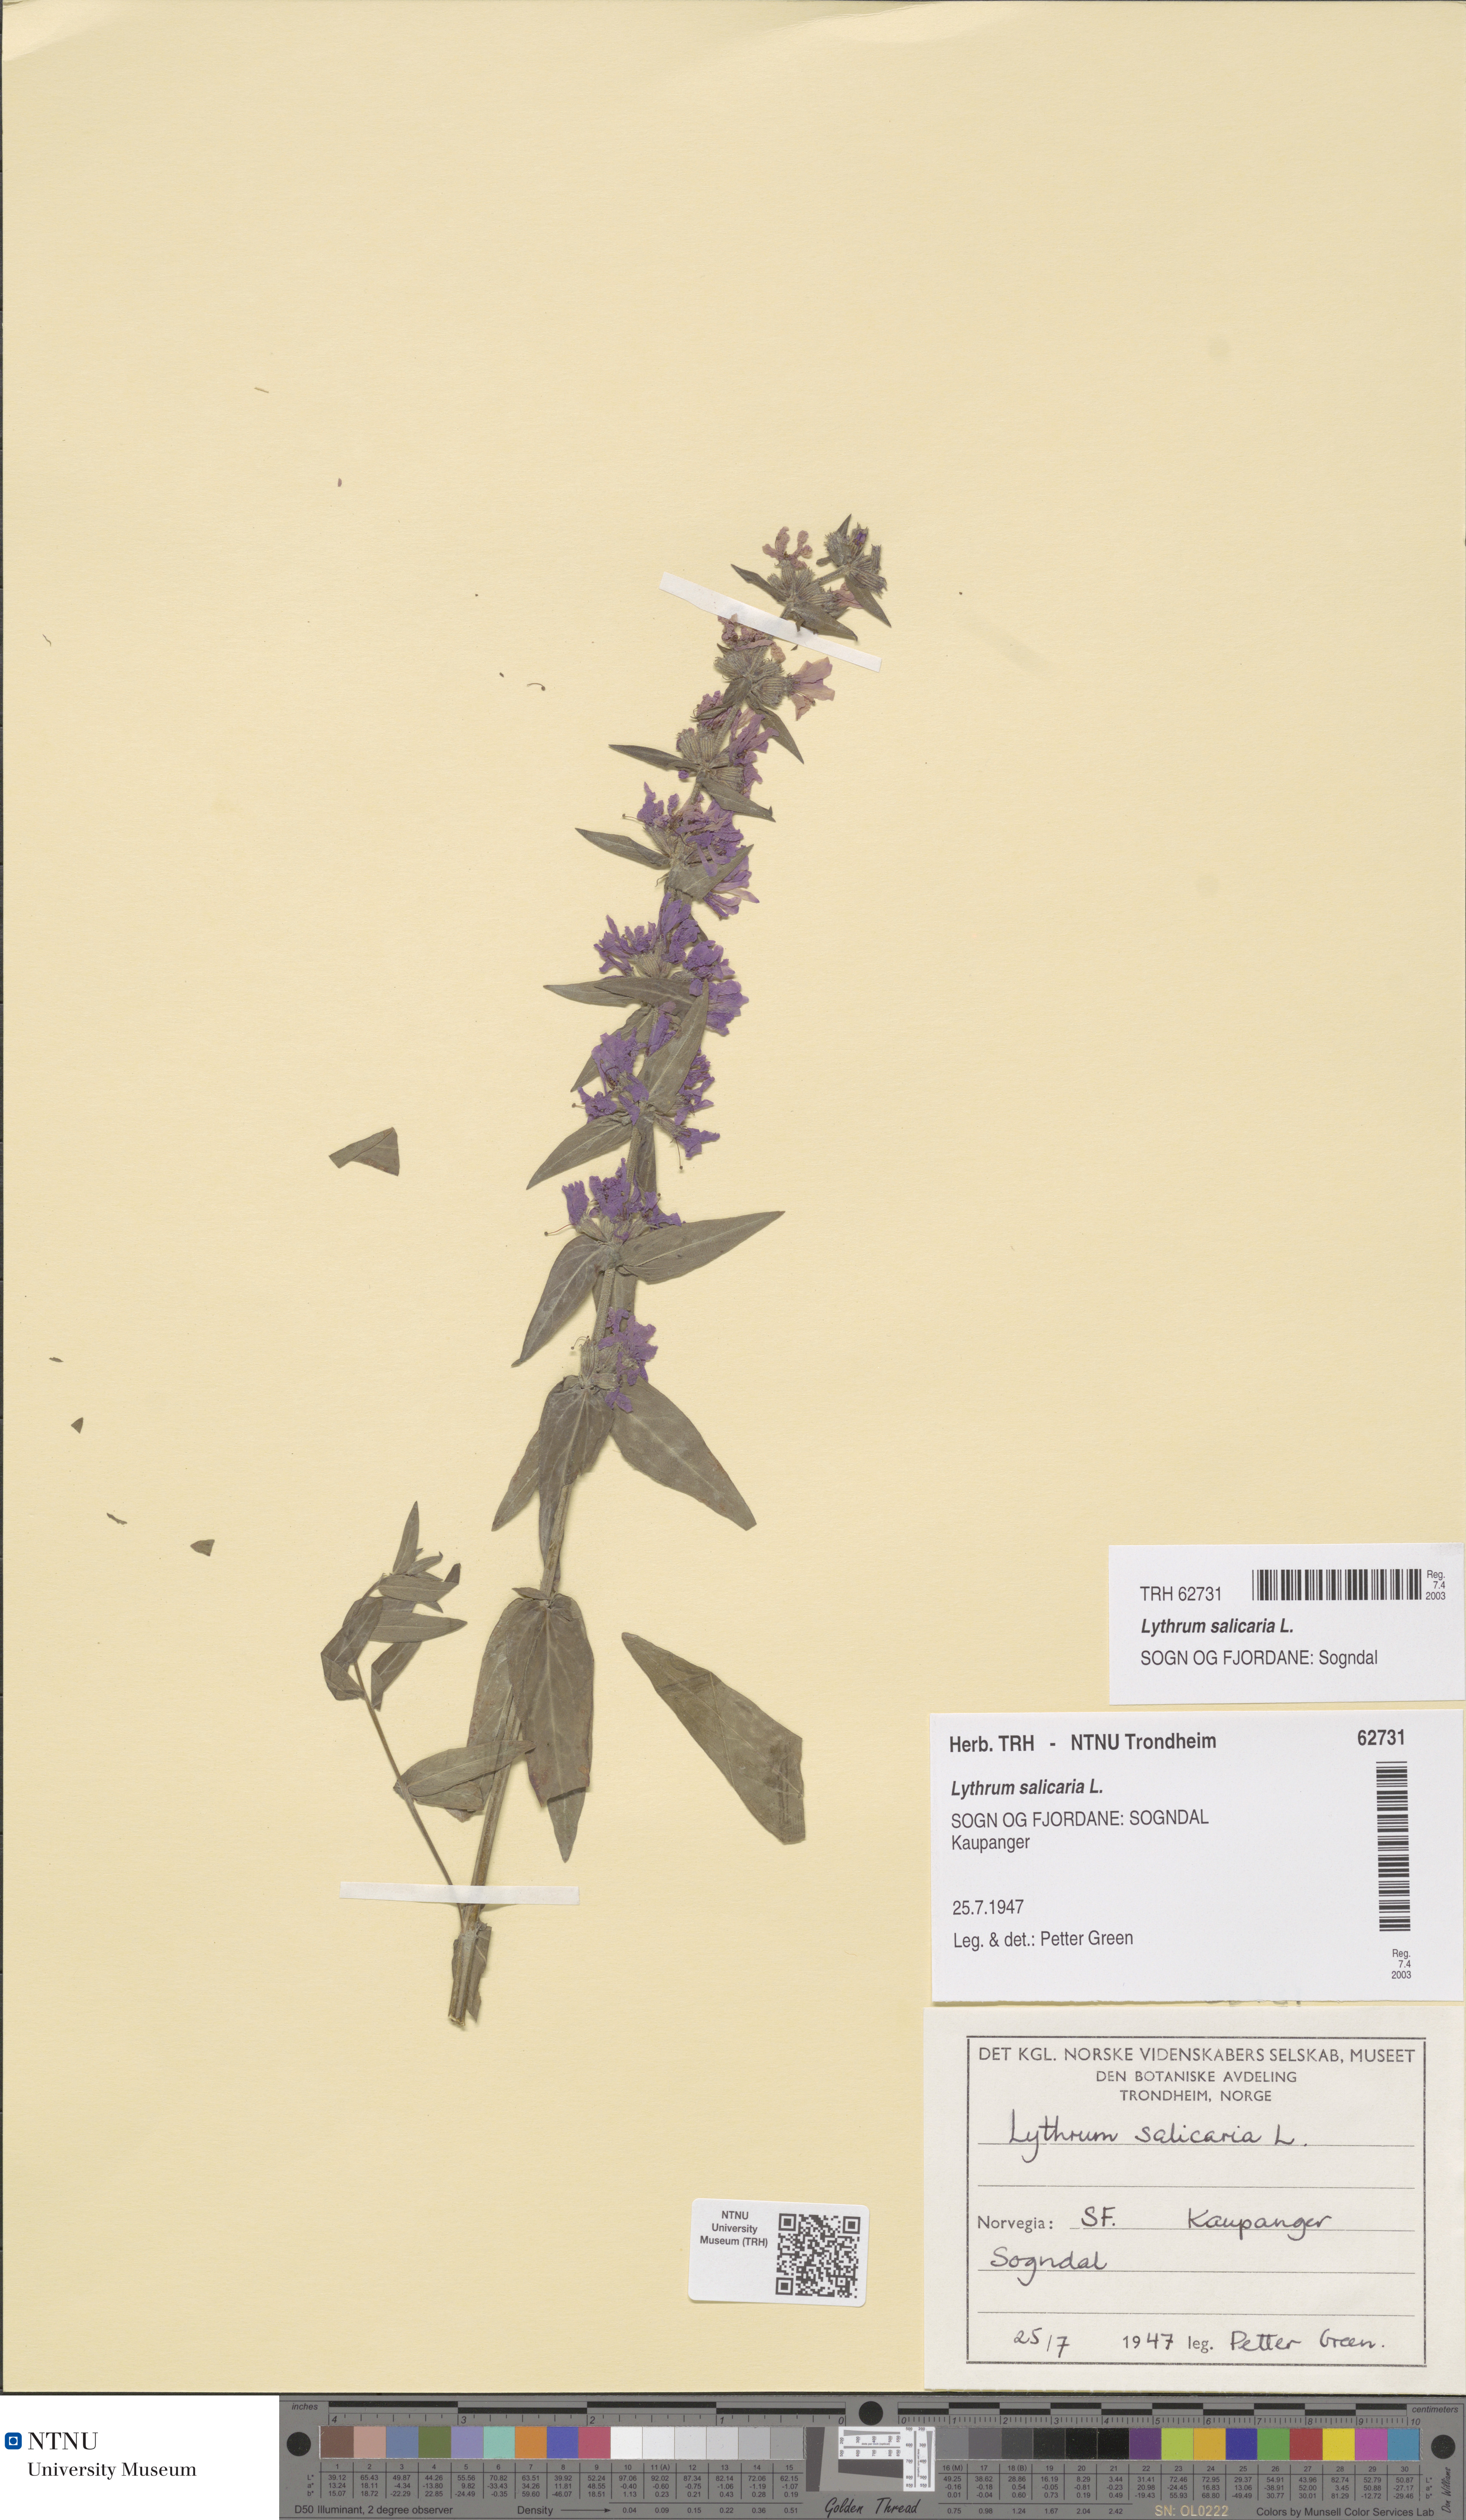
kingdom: Plantae
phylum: Tracheophyta
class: Magnoliopsida
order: Myrtales
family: Lythraceae
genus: Lythrum
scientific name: Lythrum salicaria
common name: Purple loosestrife
